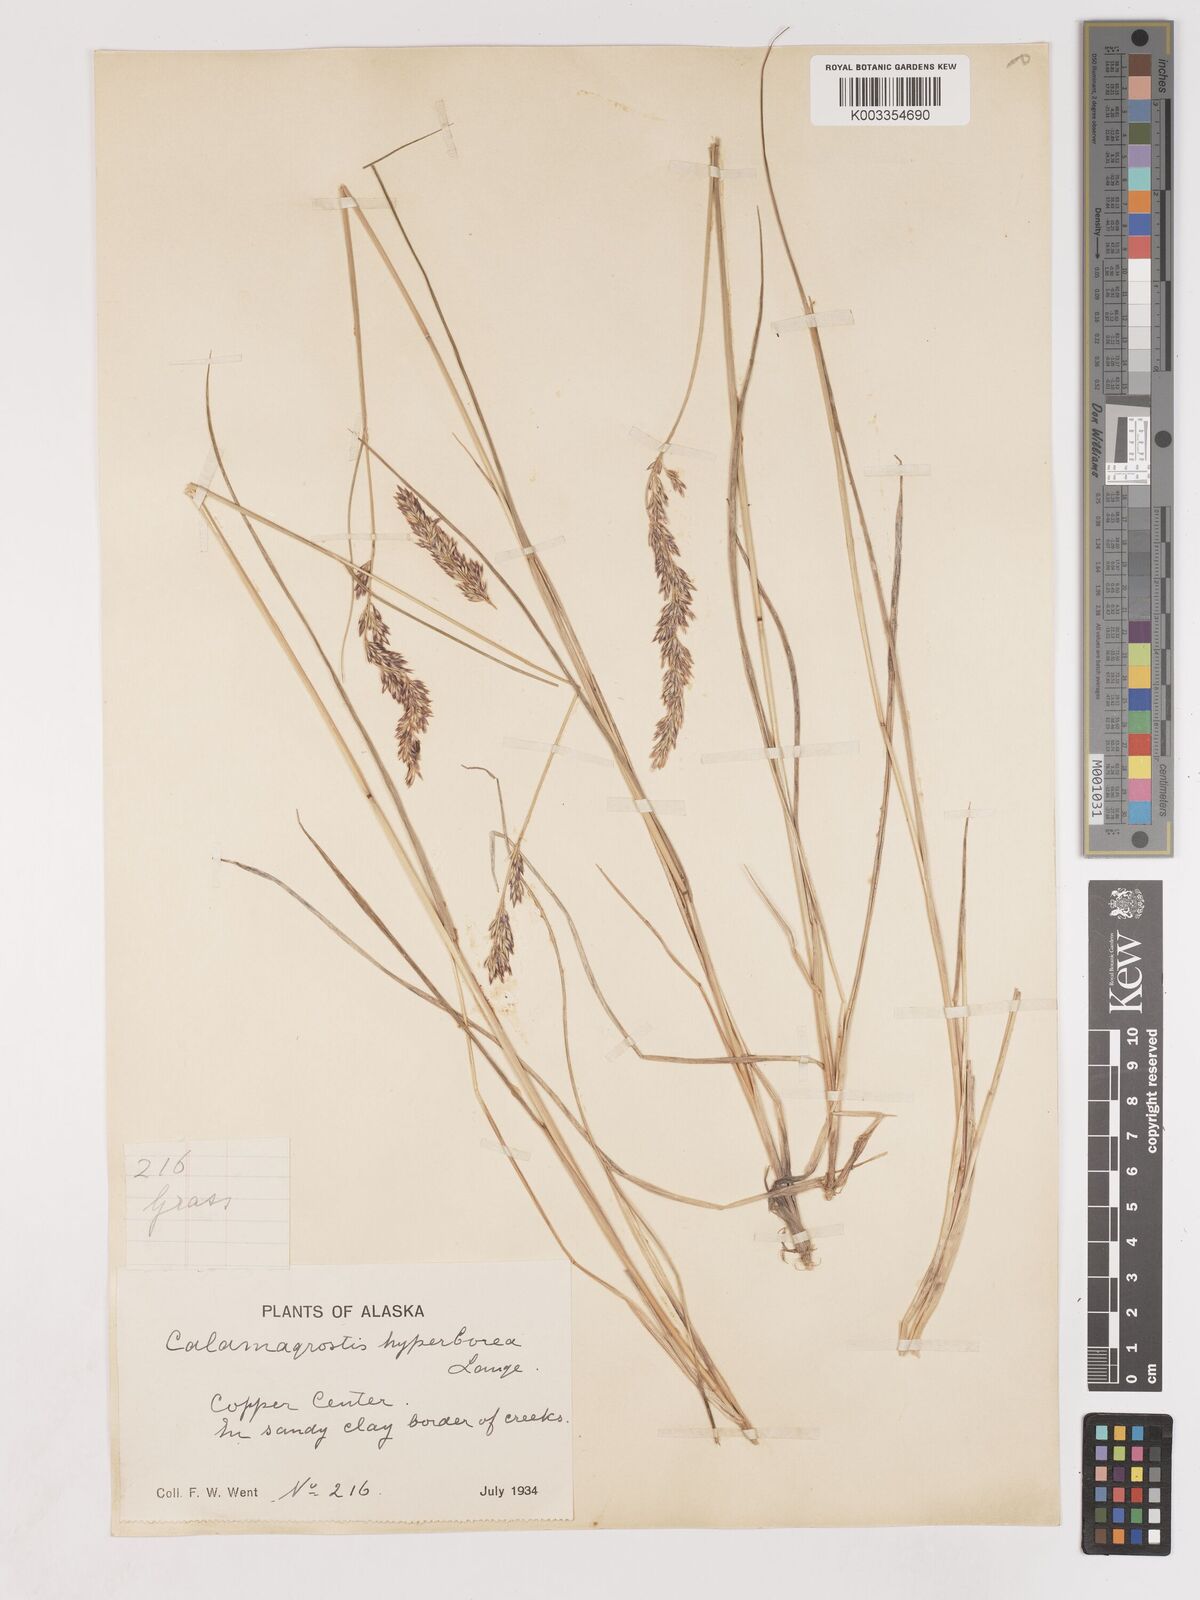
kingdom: Plantae
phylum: Tracheophyta
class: Liliopsida
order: Poales
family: Poaceae
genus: Cinnagrostis
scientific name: Cinnagrostis recta
